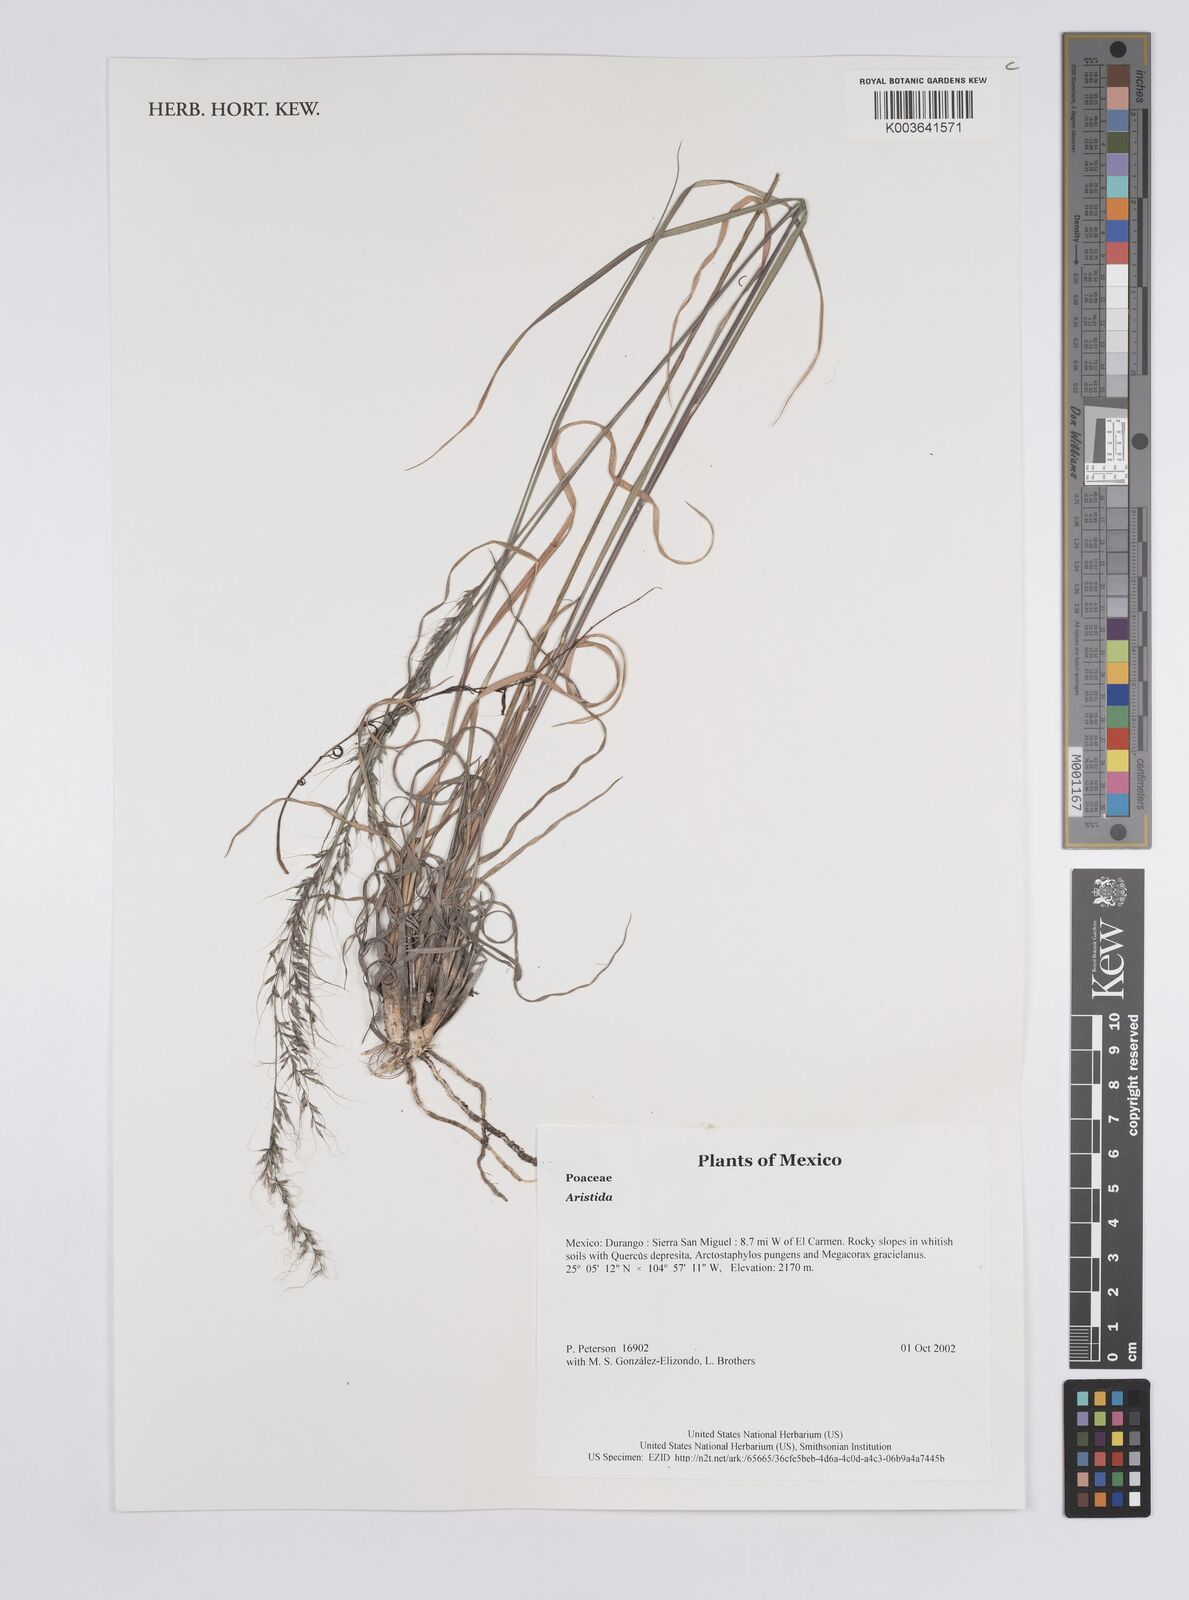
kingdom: Plantae
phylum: Tracheophyta
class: Liliopsida
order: Poales
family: Poaceae
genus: Aristida
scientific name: Aristida
